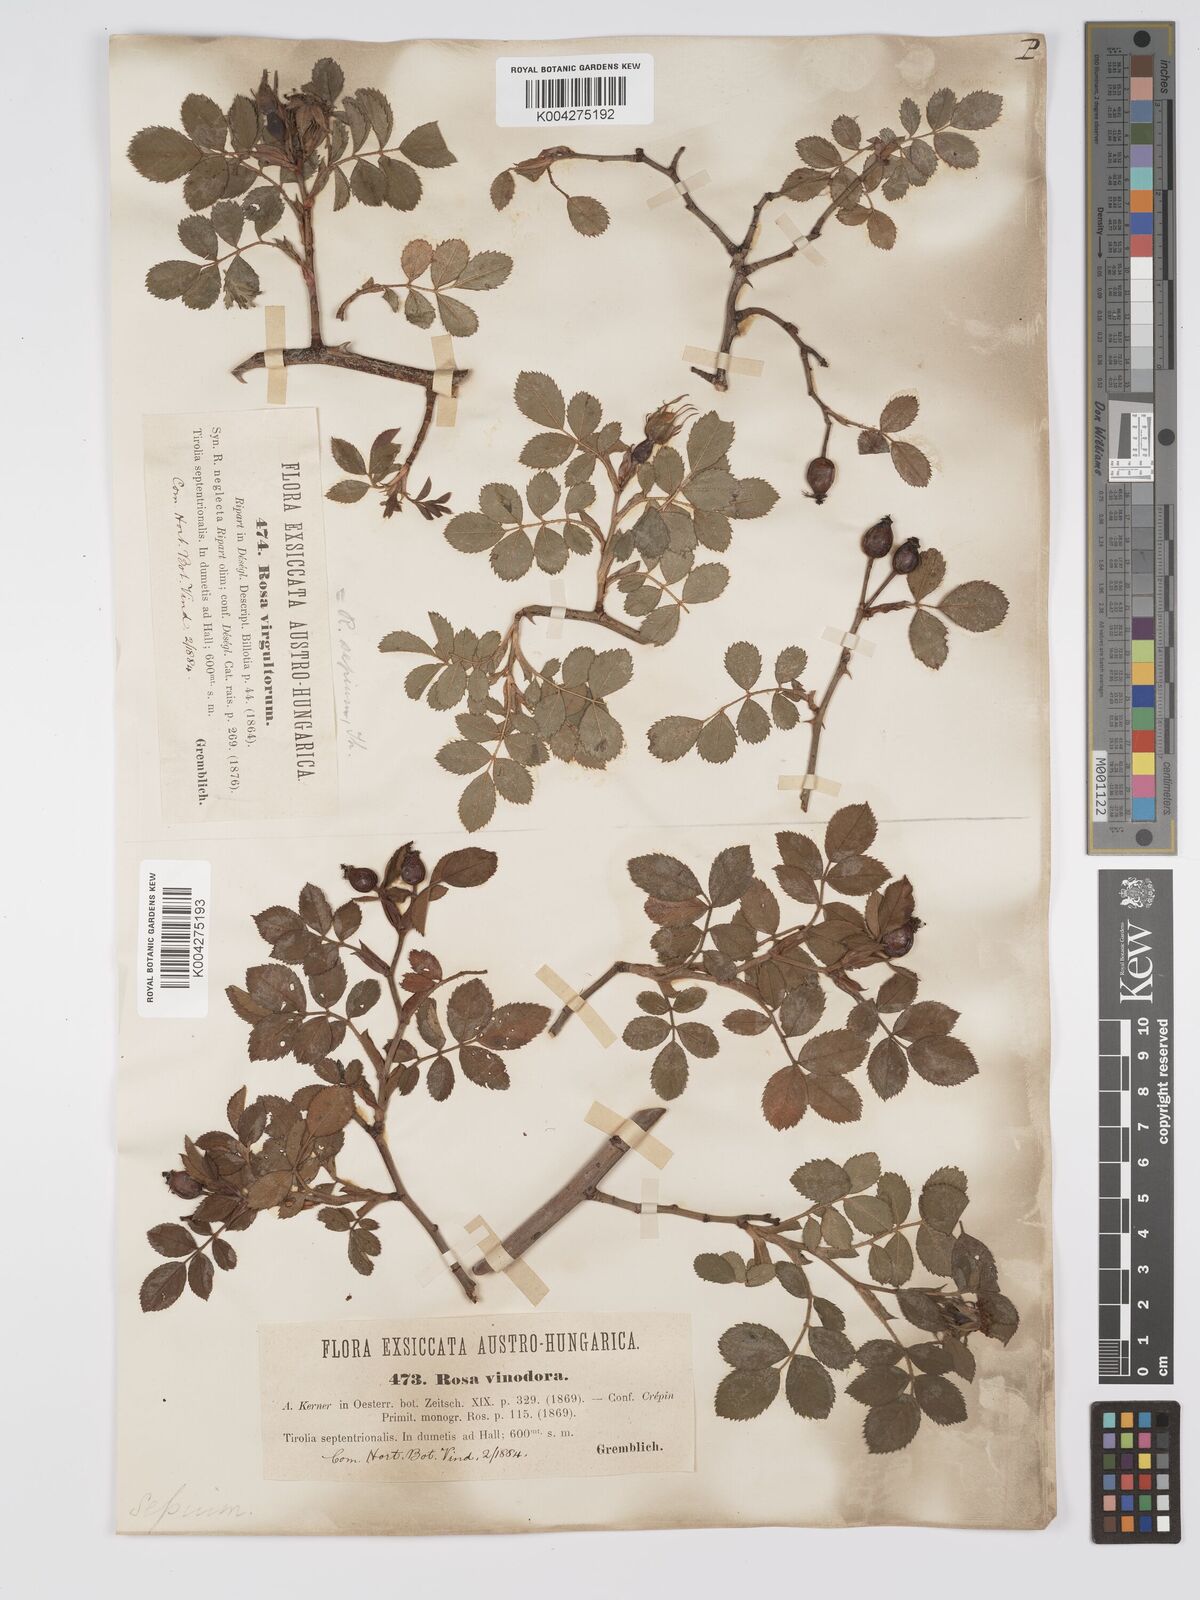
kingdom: Plantae
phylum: Tracheophyta
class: Magnoliopsida
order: Rosales
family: Rosaceae
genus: Rosa
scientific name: Rosa
